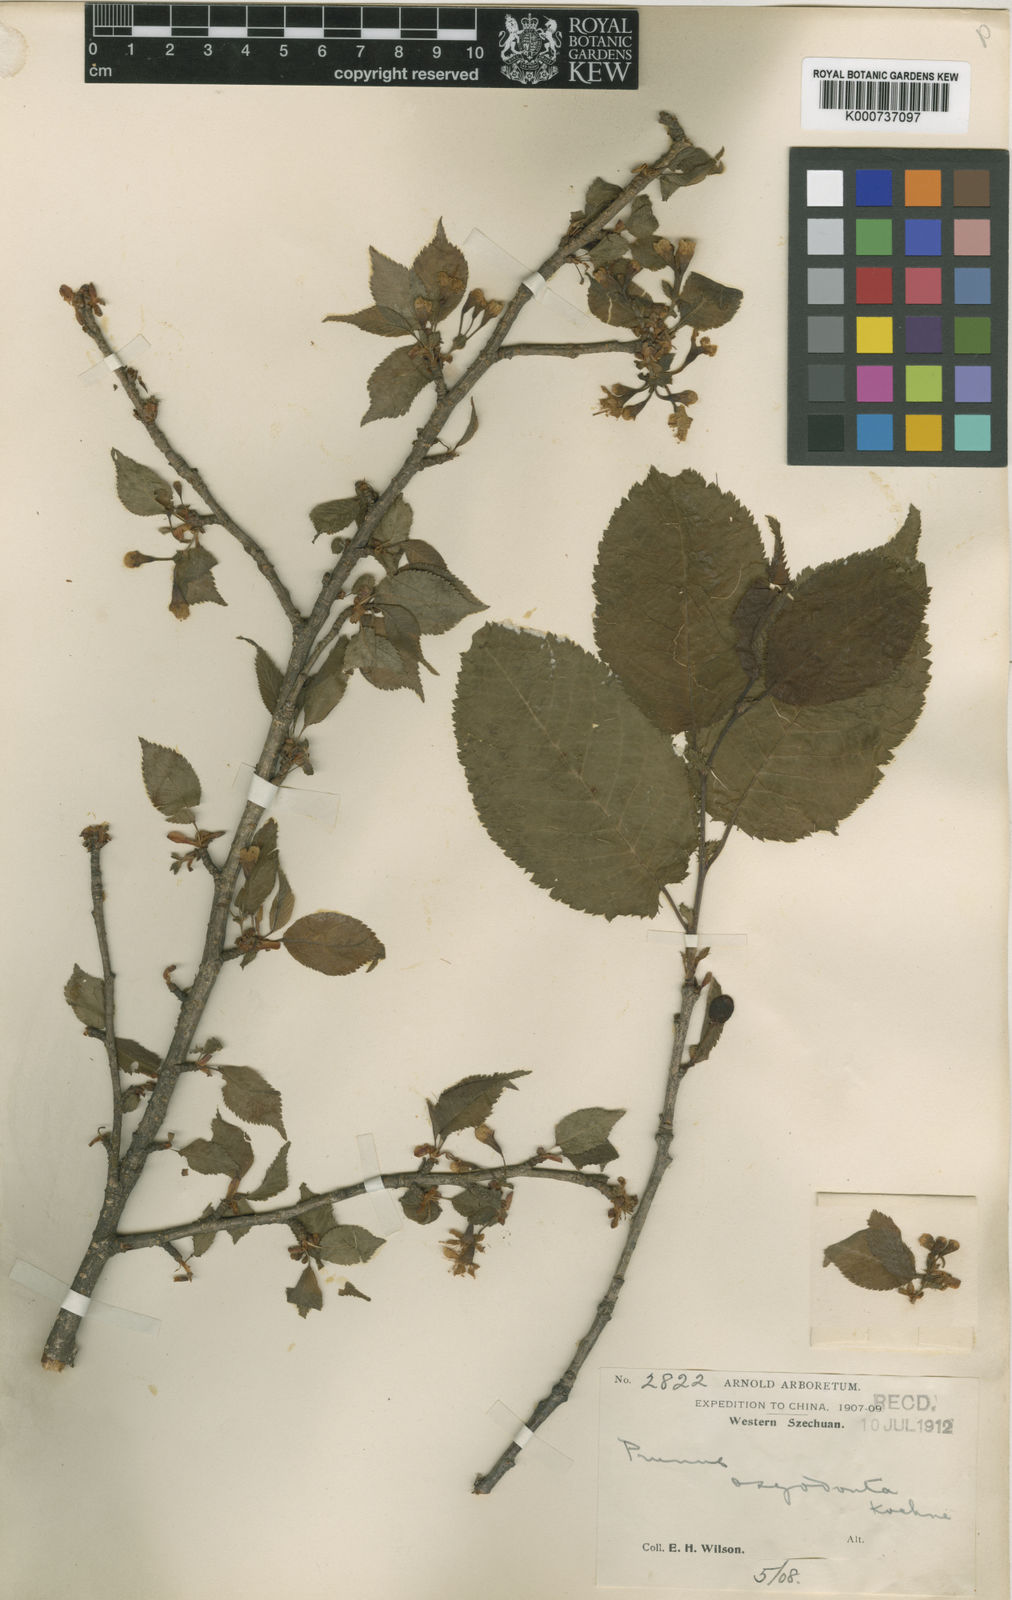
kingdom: Plantae
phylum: Tracheophyta
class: Magnoliopsida
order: Rosales
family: Rosaceae
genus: Prunus
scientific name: Prunus oxyodonta
